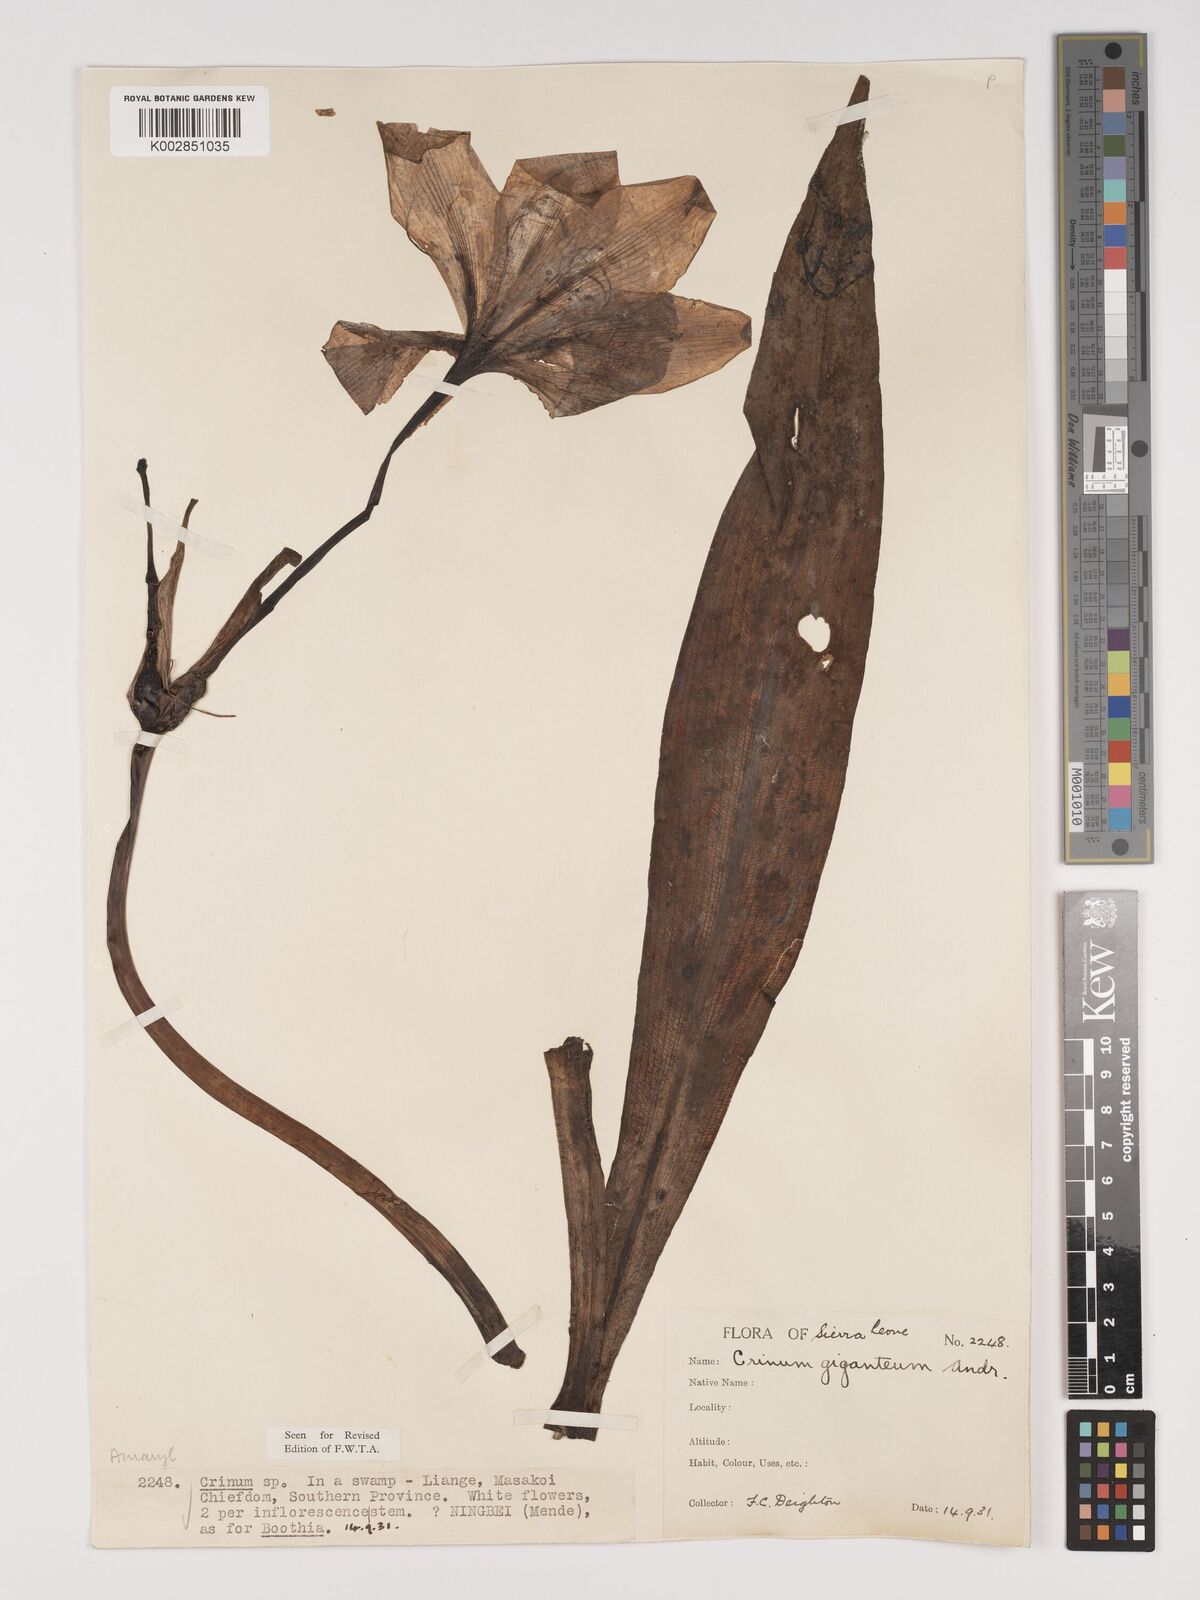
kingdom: Plantae
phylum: Tracheophyta
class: Liliopsida
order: Asparagales
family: Amaryllidaceae
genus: Crinum
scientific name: Crinum jagus
